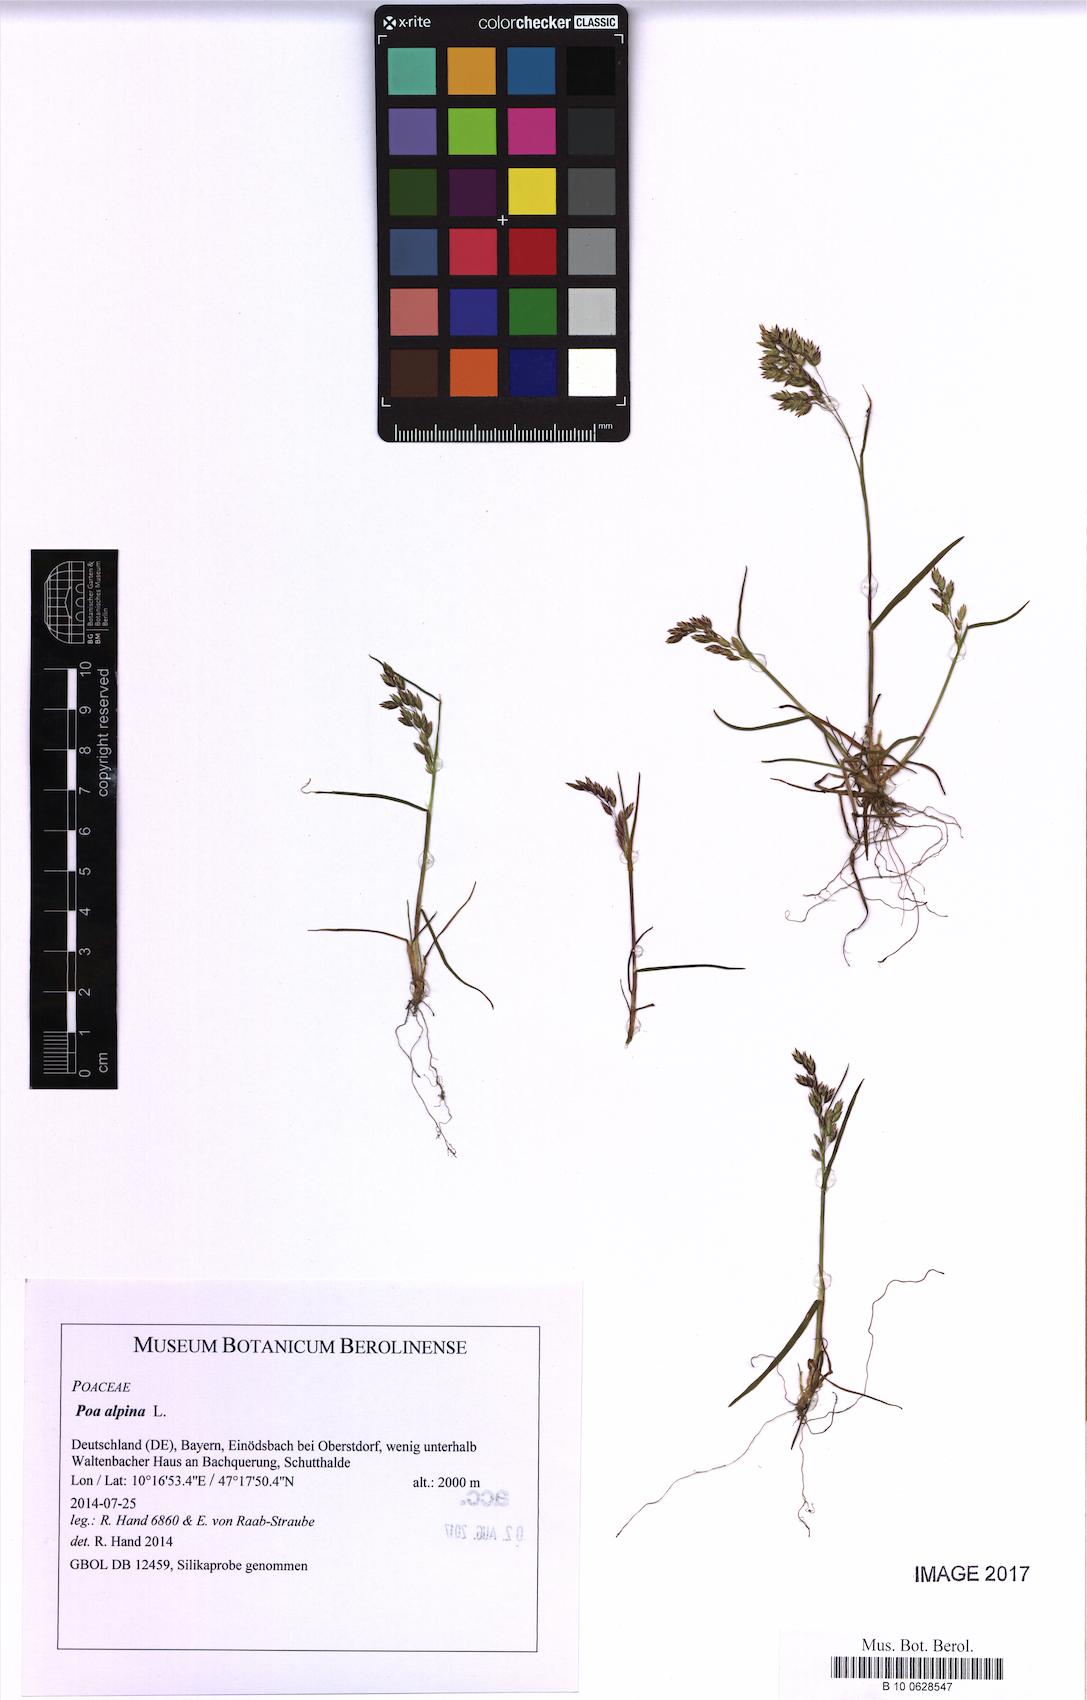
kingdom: Plantae
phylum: Tracheophyta
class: Liliopsida
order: Poales
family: Poaceae
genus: Poa
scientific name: Poa alpina
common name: Alpine bluegrass
